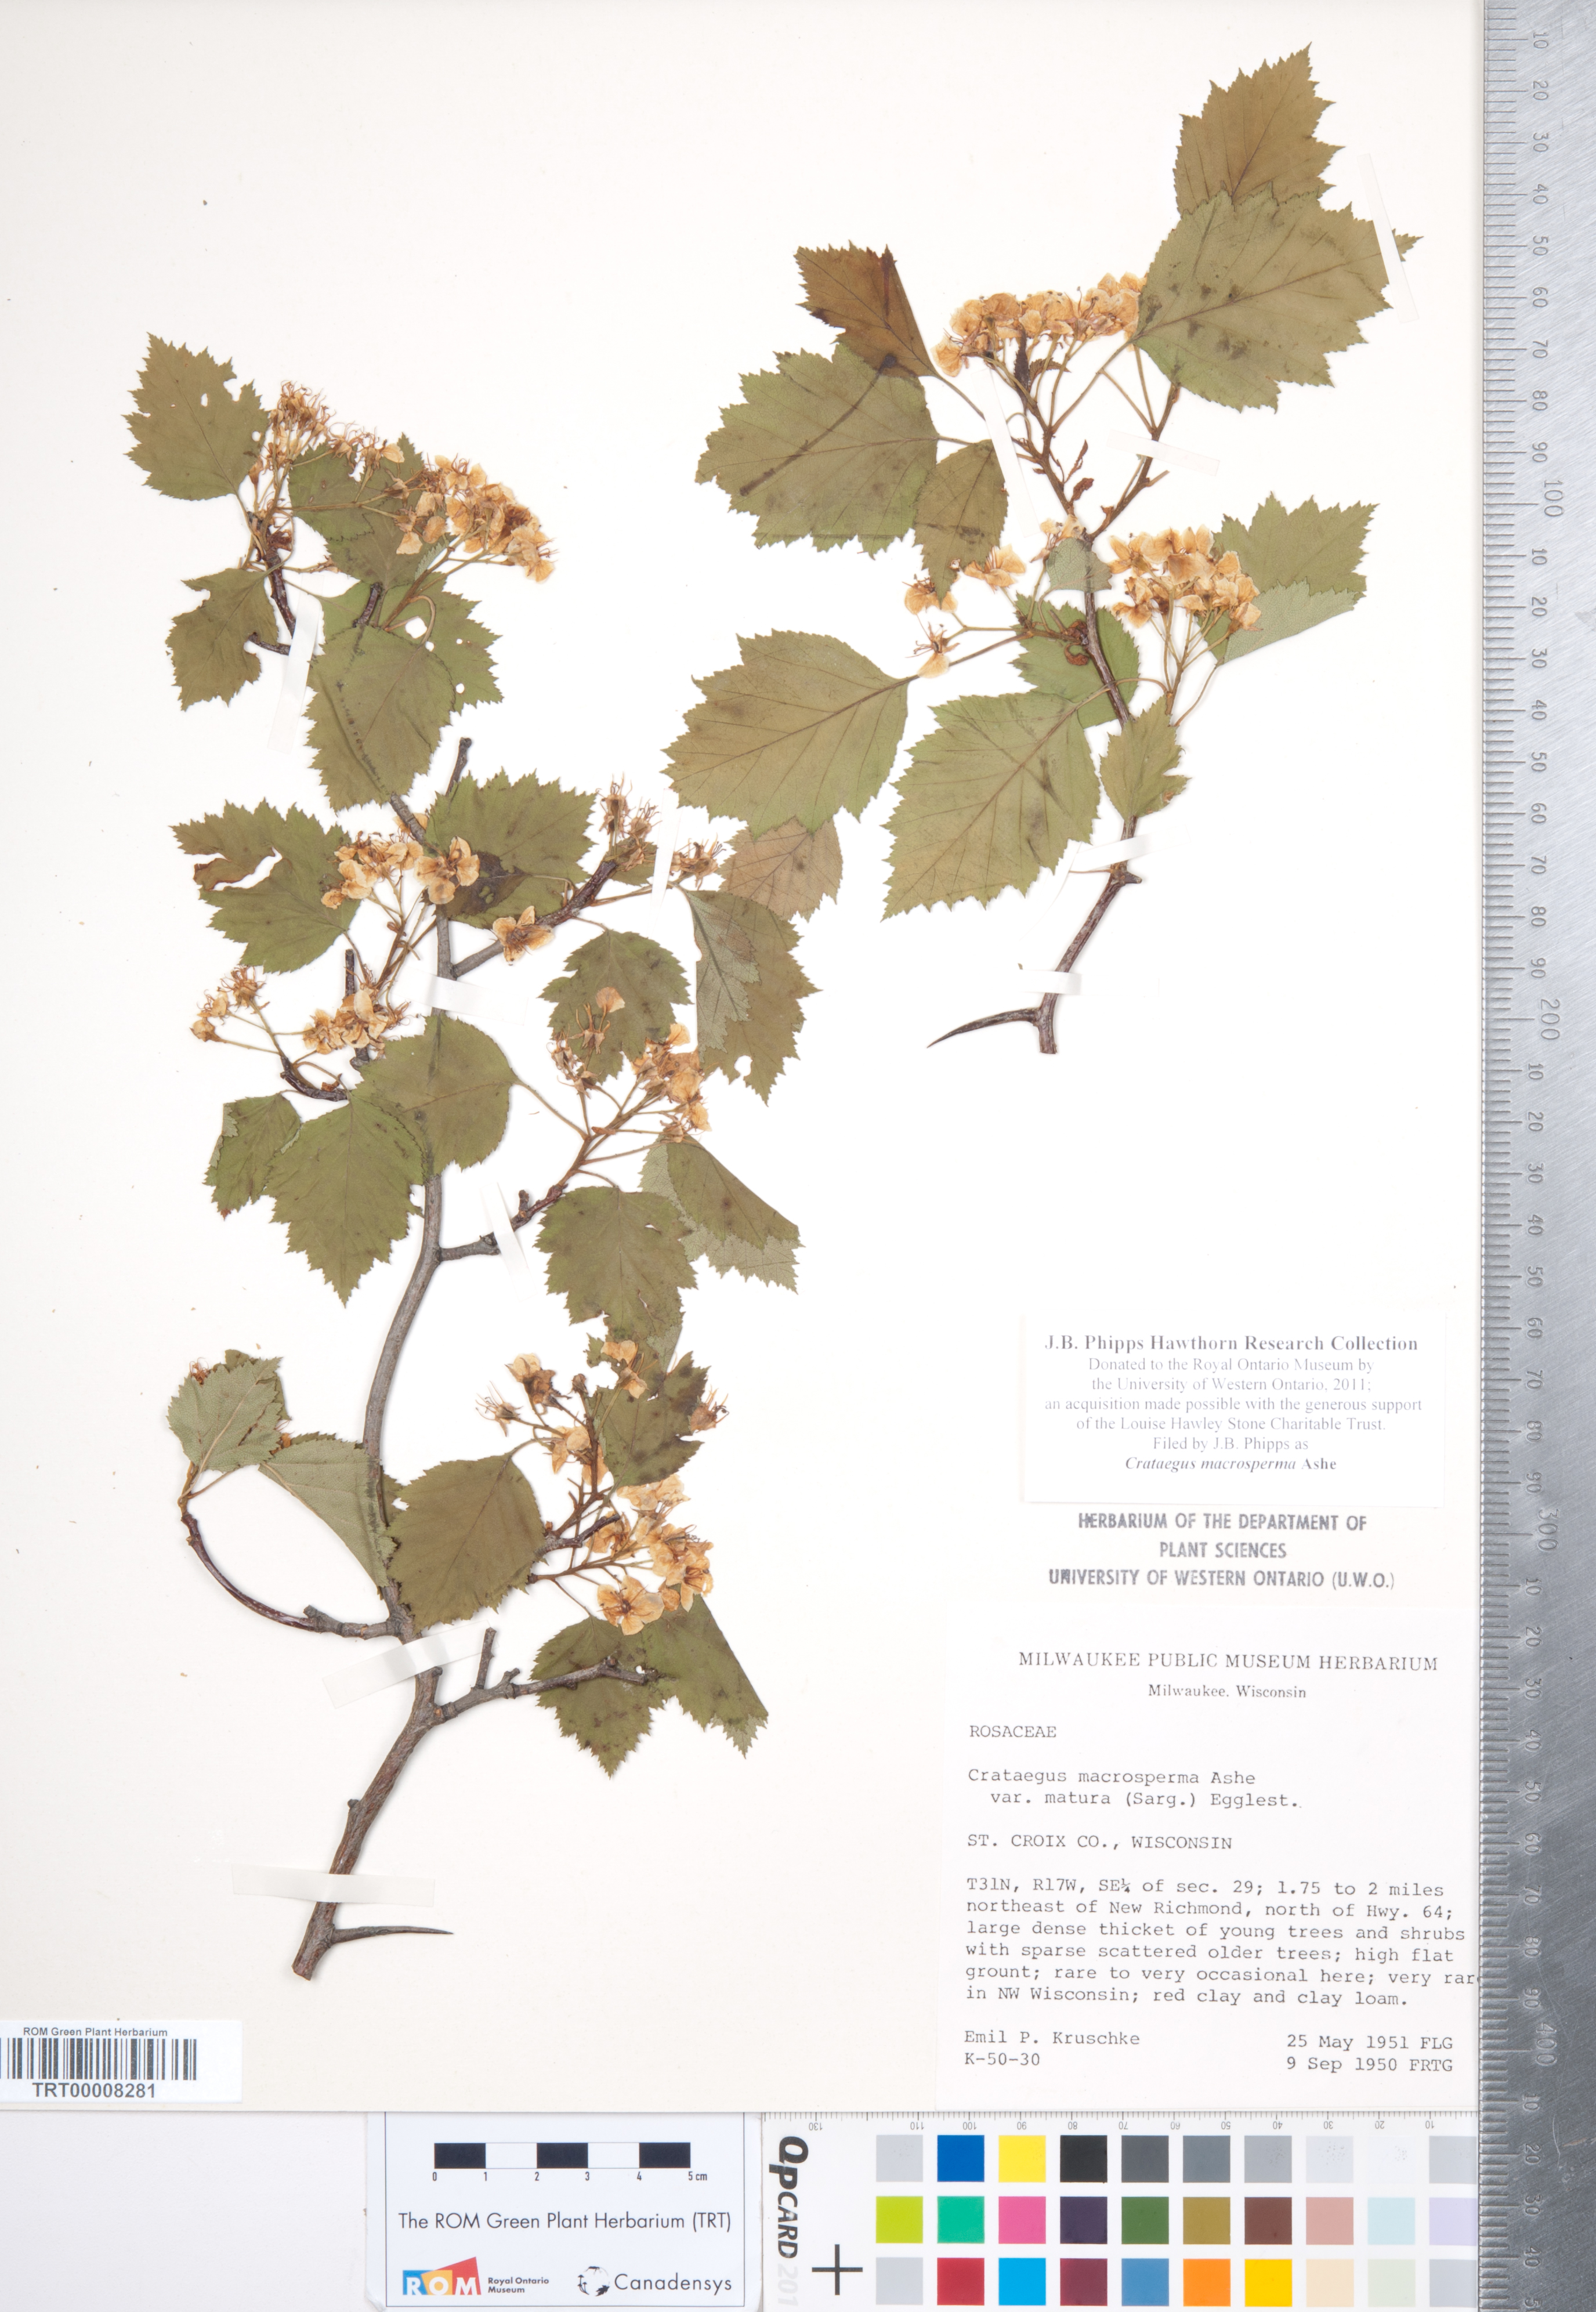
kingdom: Plantae
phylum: Tracheophyta
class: Magnoliopsida
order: Rosales
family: Rosaceae
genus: Crataegus
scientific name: Crataegus macrosperma
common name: Variable hawthorn
